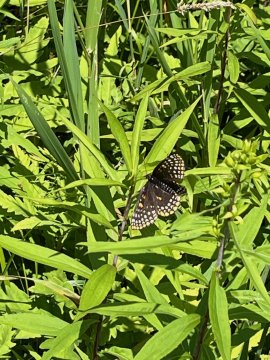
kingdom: Animalia
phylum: Arthropoda
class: Insecta
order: Lepidoptera
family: Nymphalidae
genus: Euphydryas
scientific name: Euphydryas phaeton
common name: Baltimore Checkerspot
